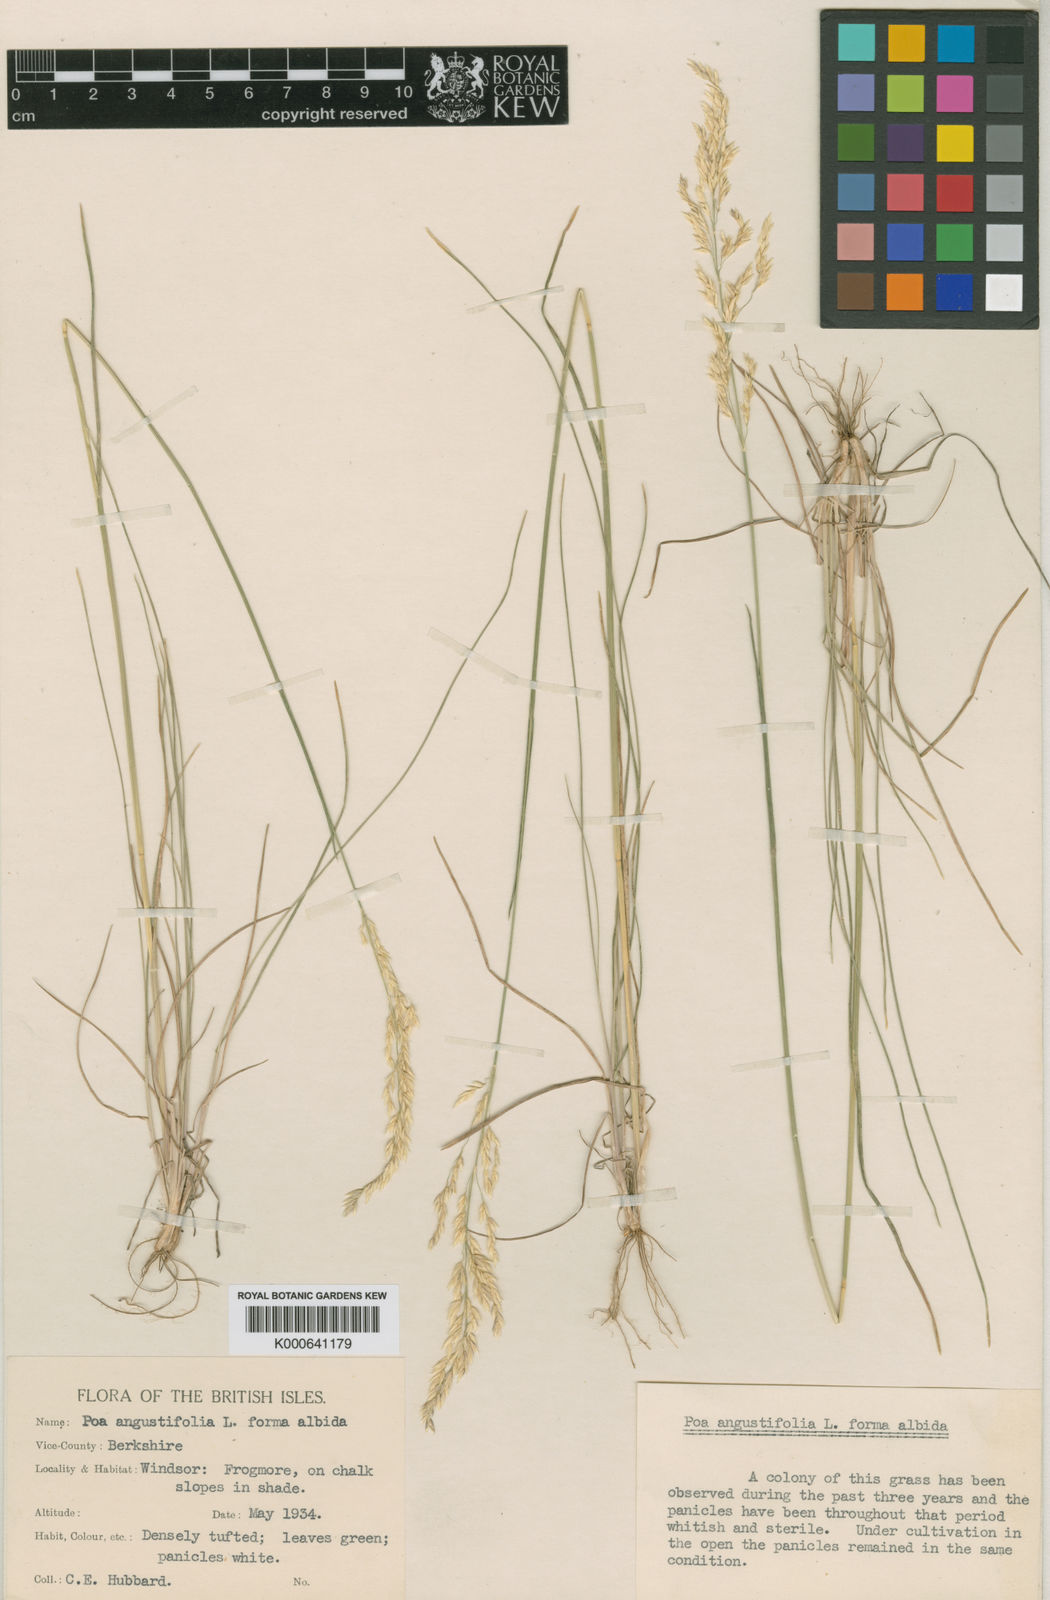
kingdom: Plantae
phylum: Tracheophyta
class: Liliopsida
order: Poales
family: Poaceae
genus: Poa
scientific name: Poa angustifolia
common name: Narrow-leaved meadow-grass
